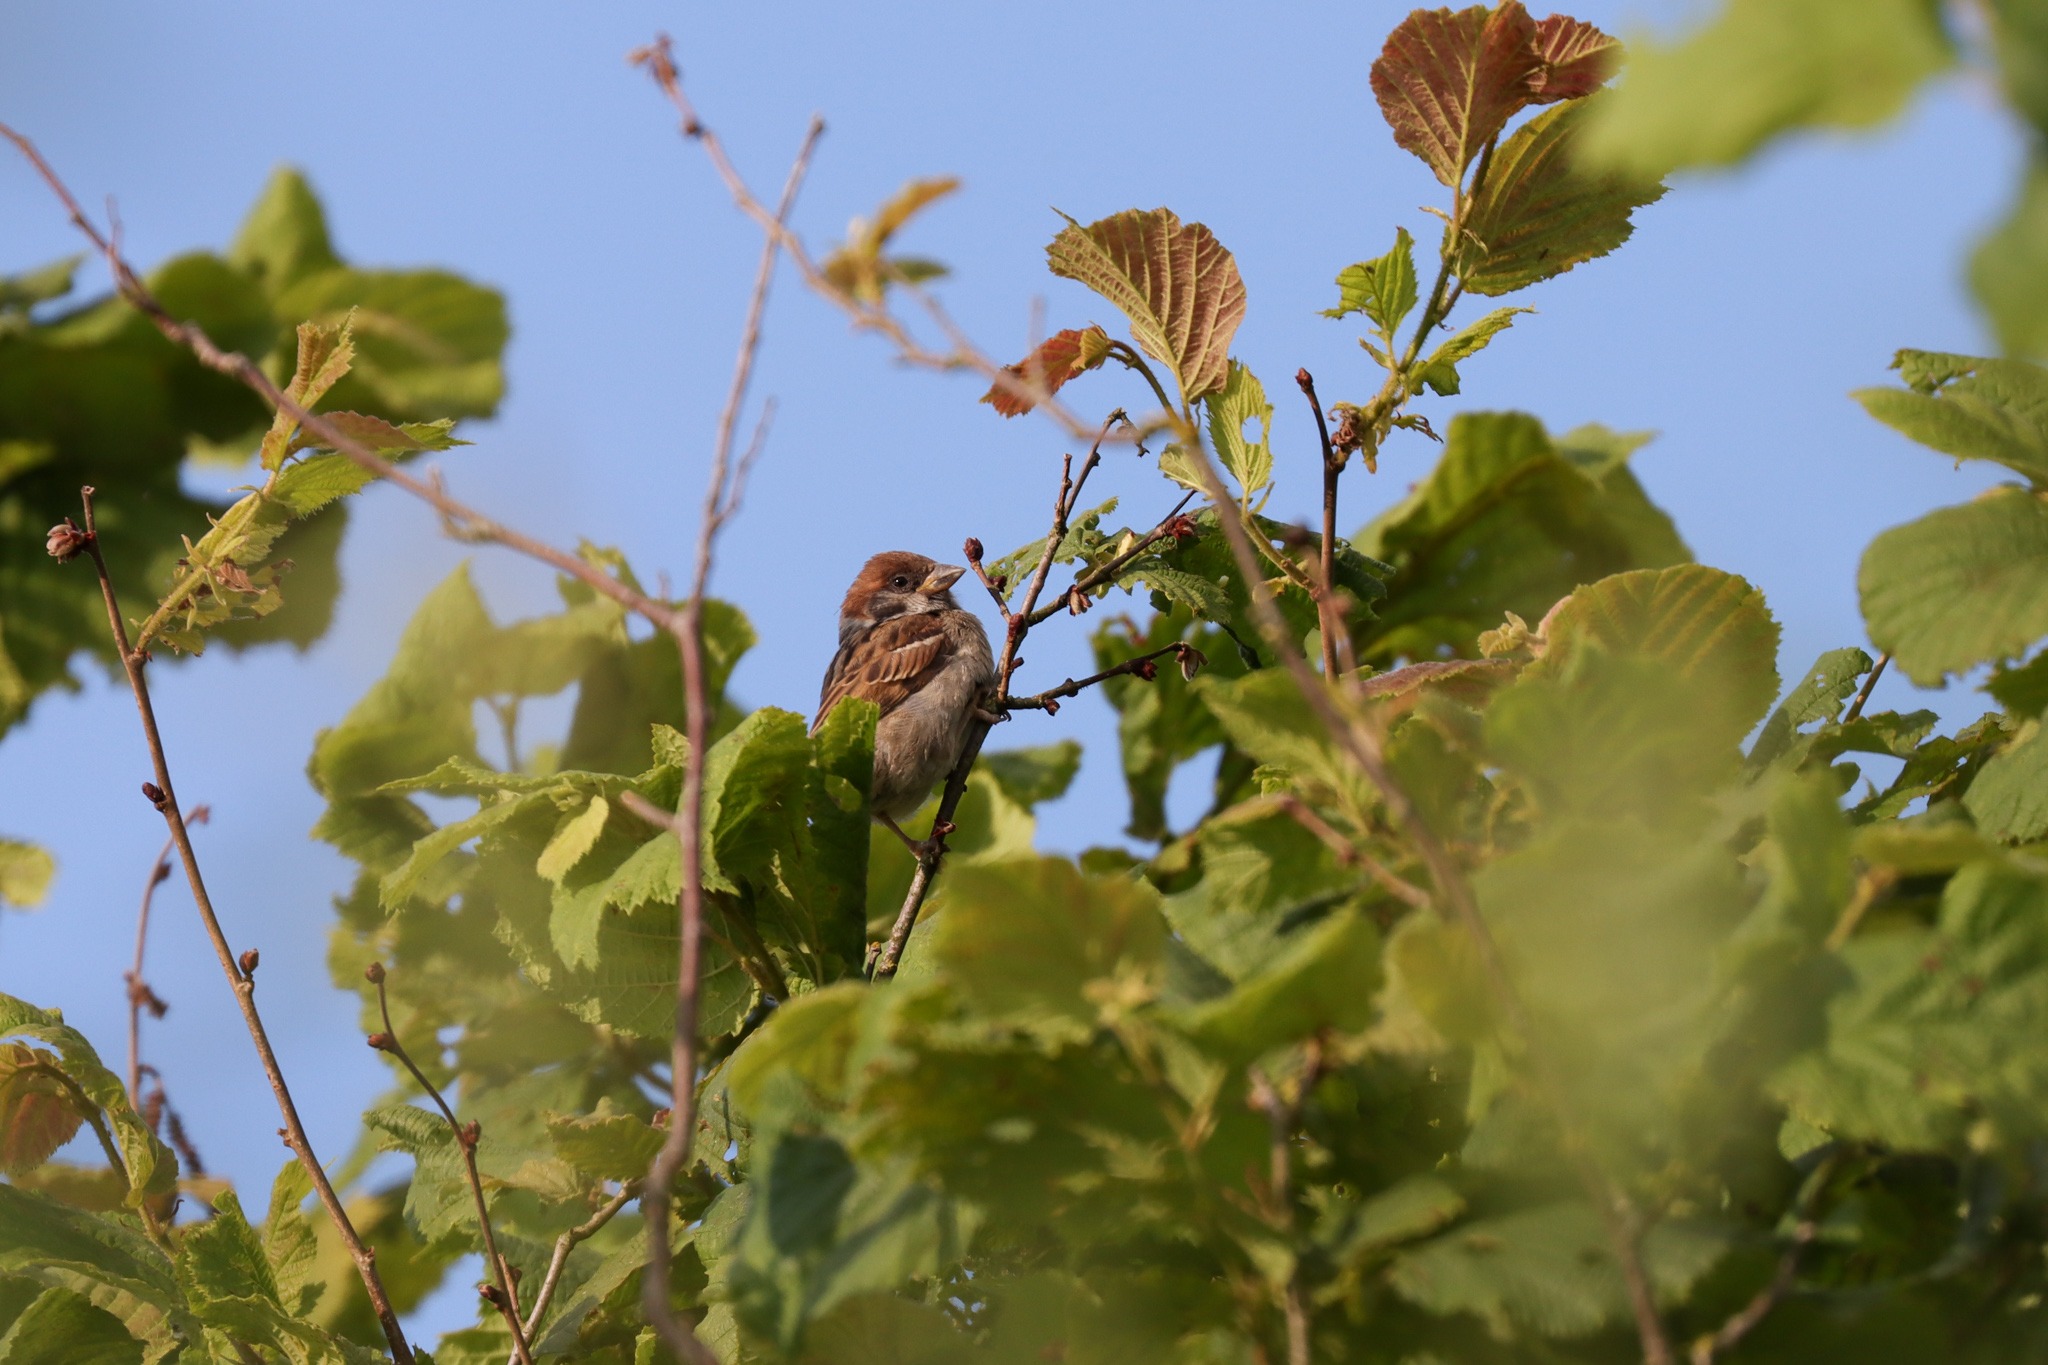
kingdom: Animalia
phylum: Chordata
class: Aves
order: Passeriformes
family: Passeridae
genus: Passer
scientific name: Passer montanus
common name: Skovspurv
